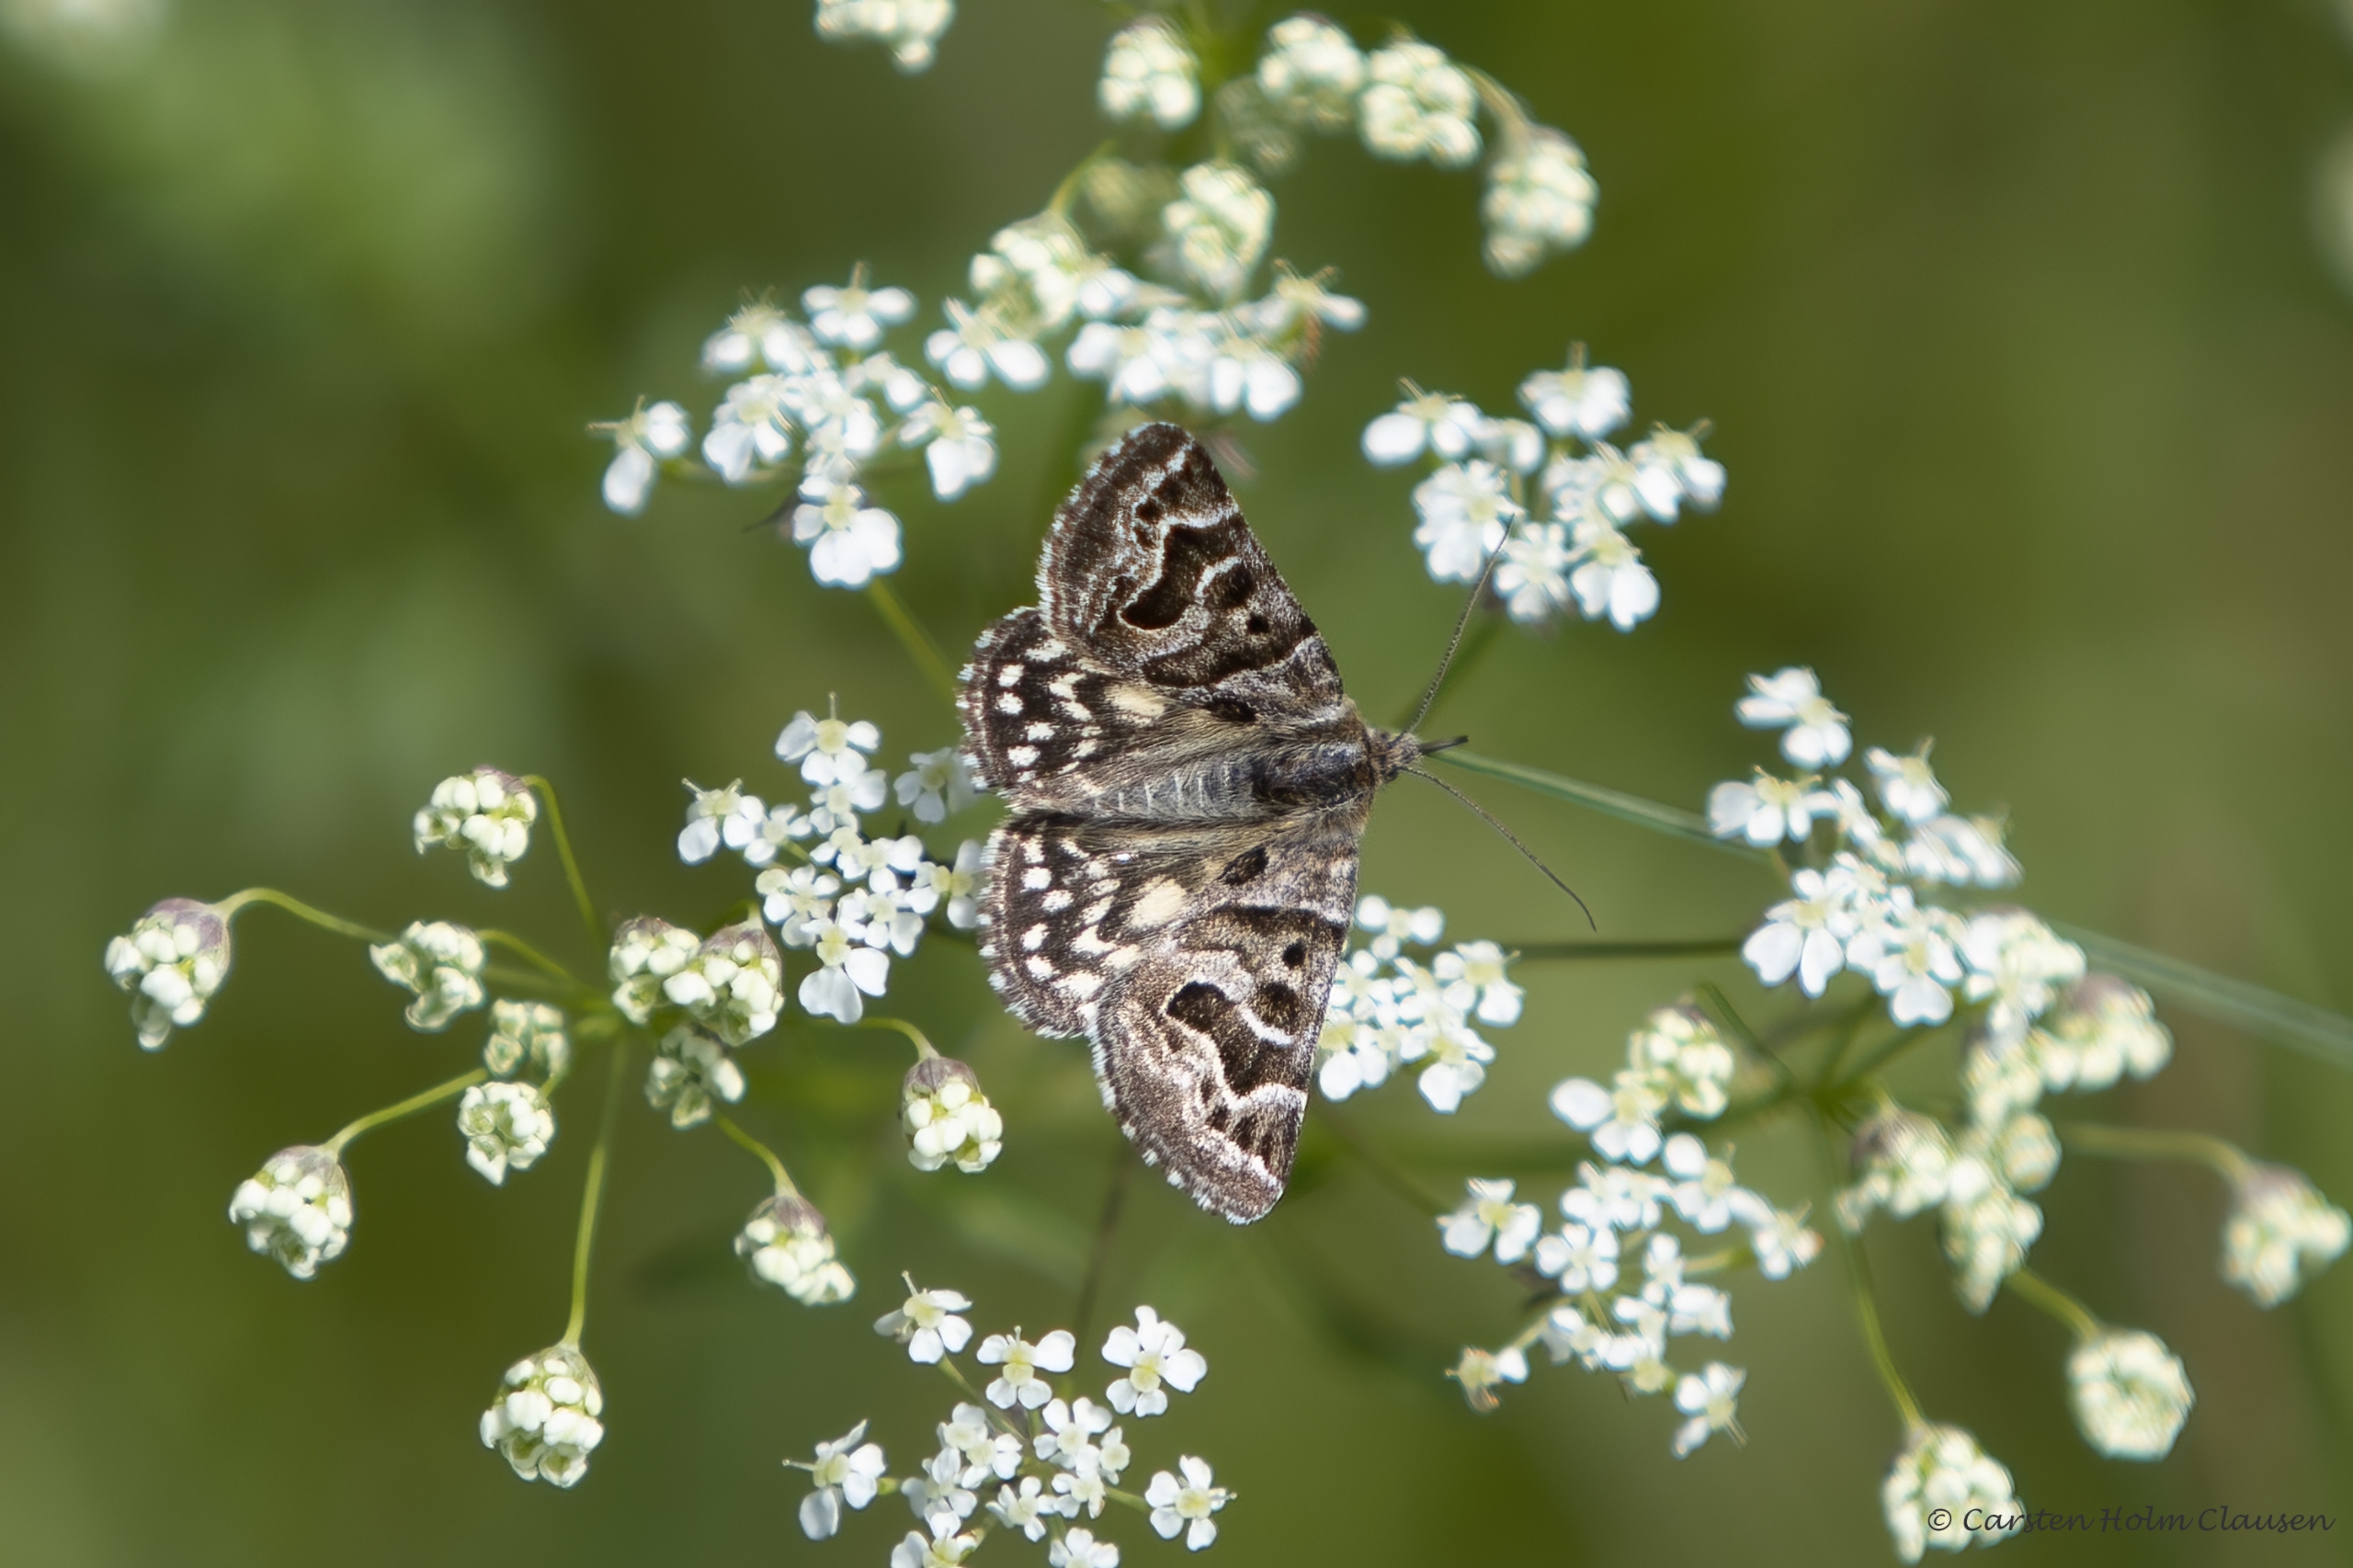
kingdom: Animalia
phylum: Arthropoda
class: Insecta
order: Lepidoptera
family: Erebidae
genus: Callistege
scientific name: Callistege mi
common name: Marmoreret kløverugle
